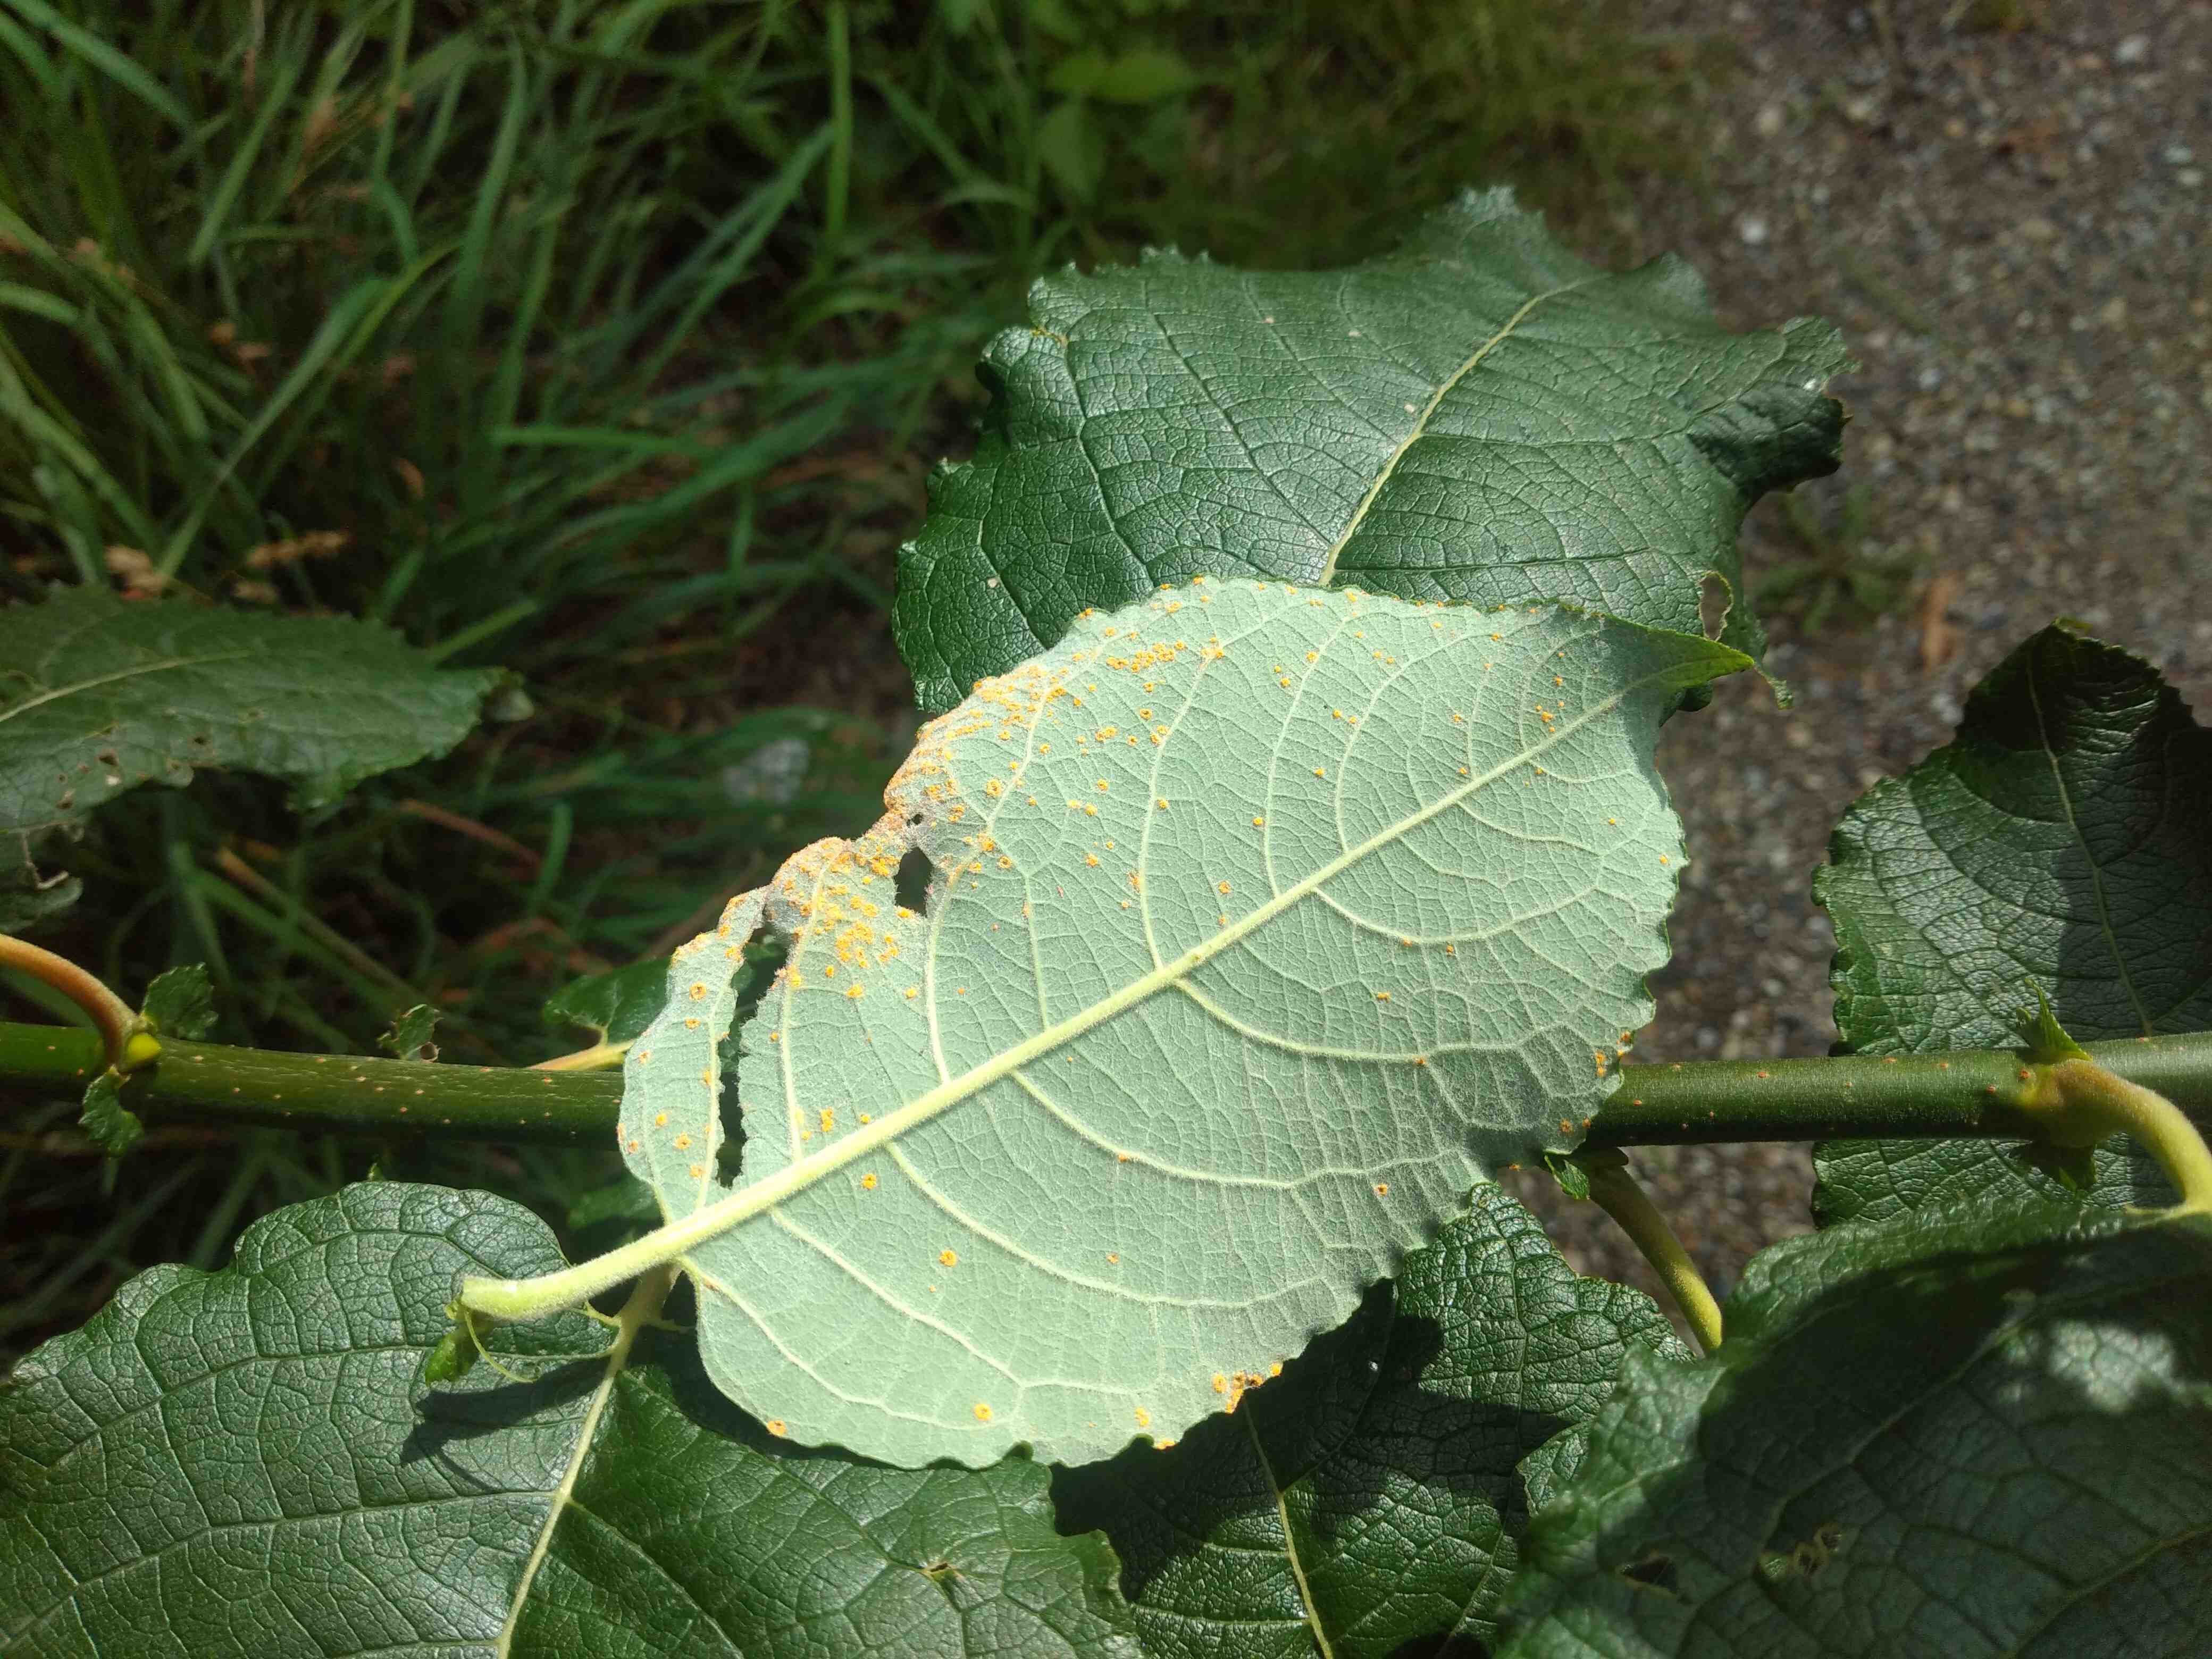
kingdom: Fungi
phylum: Basidiomycota
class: Pucciniomycetes
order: Pucciniales
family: Melampsoraceae
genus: Melampsora
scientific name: Melampsora epitea
